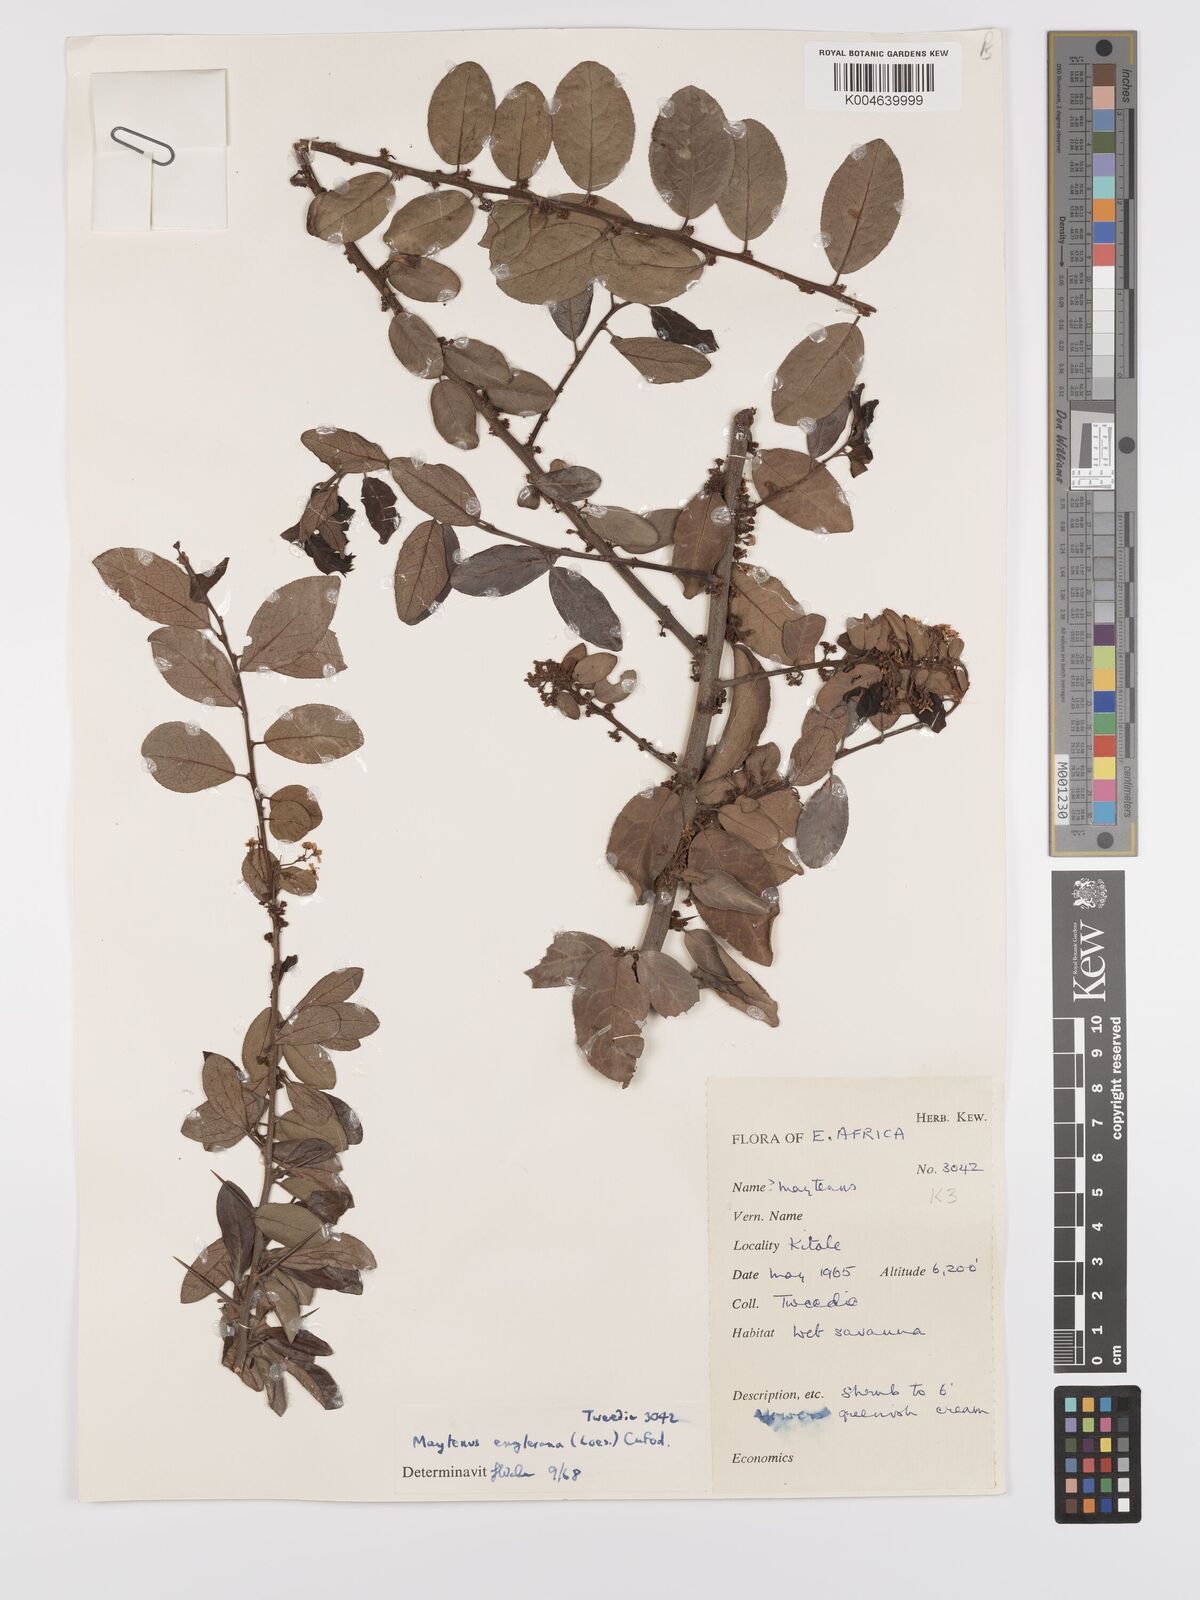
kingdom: Plantae
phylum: Tracheophyta
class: Magnoliopsida
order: Celastrales
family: Celastraceae
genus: Gymnosporia
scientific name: Gymnosporia arbutifolia
